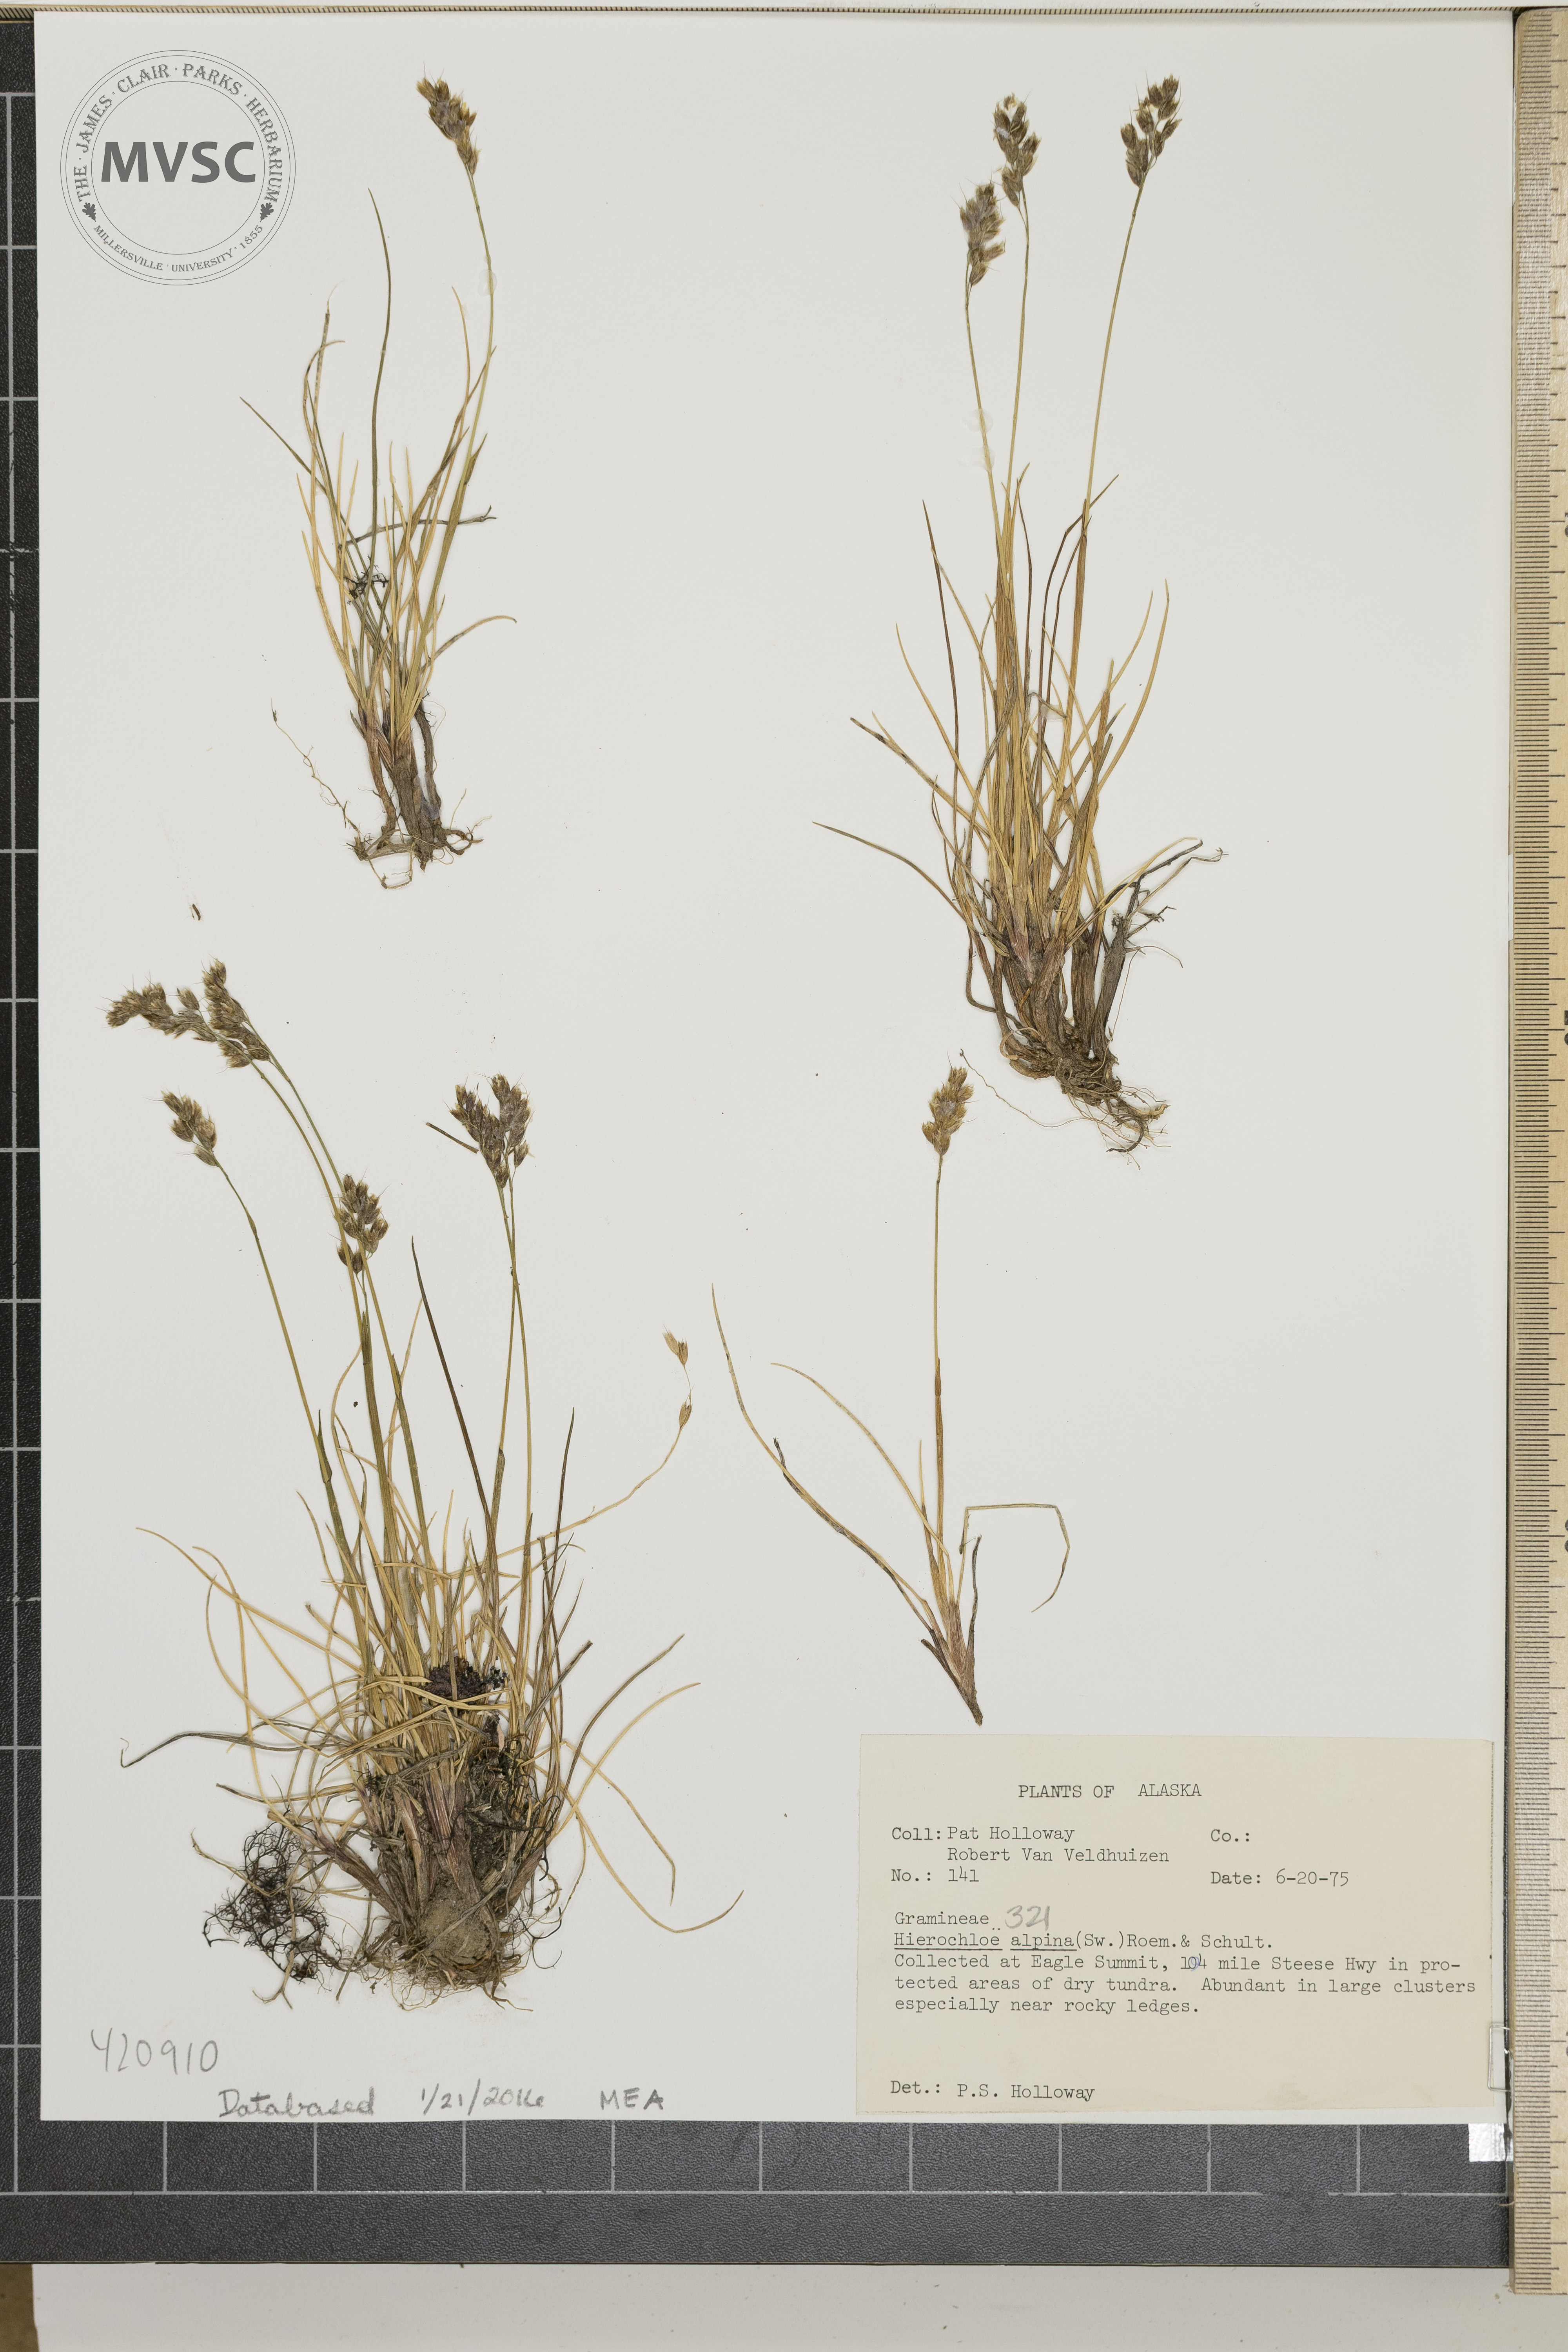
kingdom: Plantae
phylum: Tracheophyta
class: Liliopsida
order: Poales
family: Poaceae
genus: Anthoxanthum
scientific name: Anthoxanthum monticola
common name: Alpine Sweetgrass
